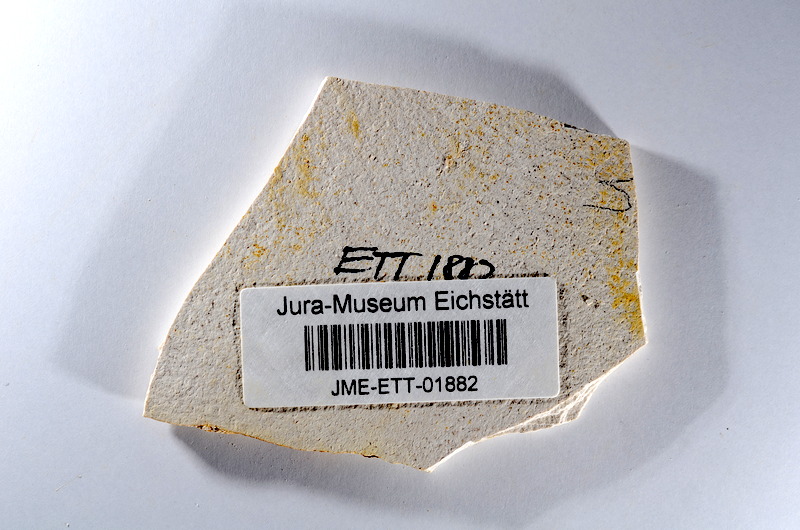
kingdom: Animalia
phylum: Chordata
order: Salmoniformes
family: Orthogonikleithridae
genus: Orthogonikleithrus
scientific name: Orthogonikleithrus hoelli
